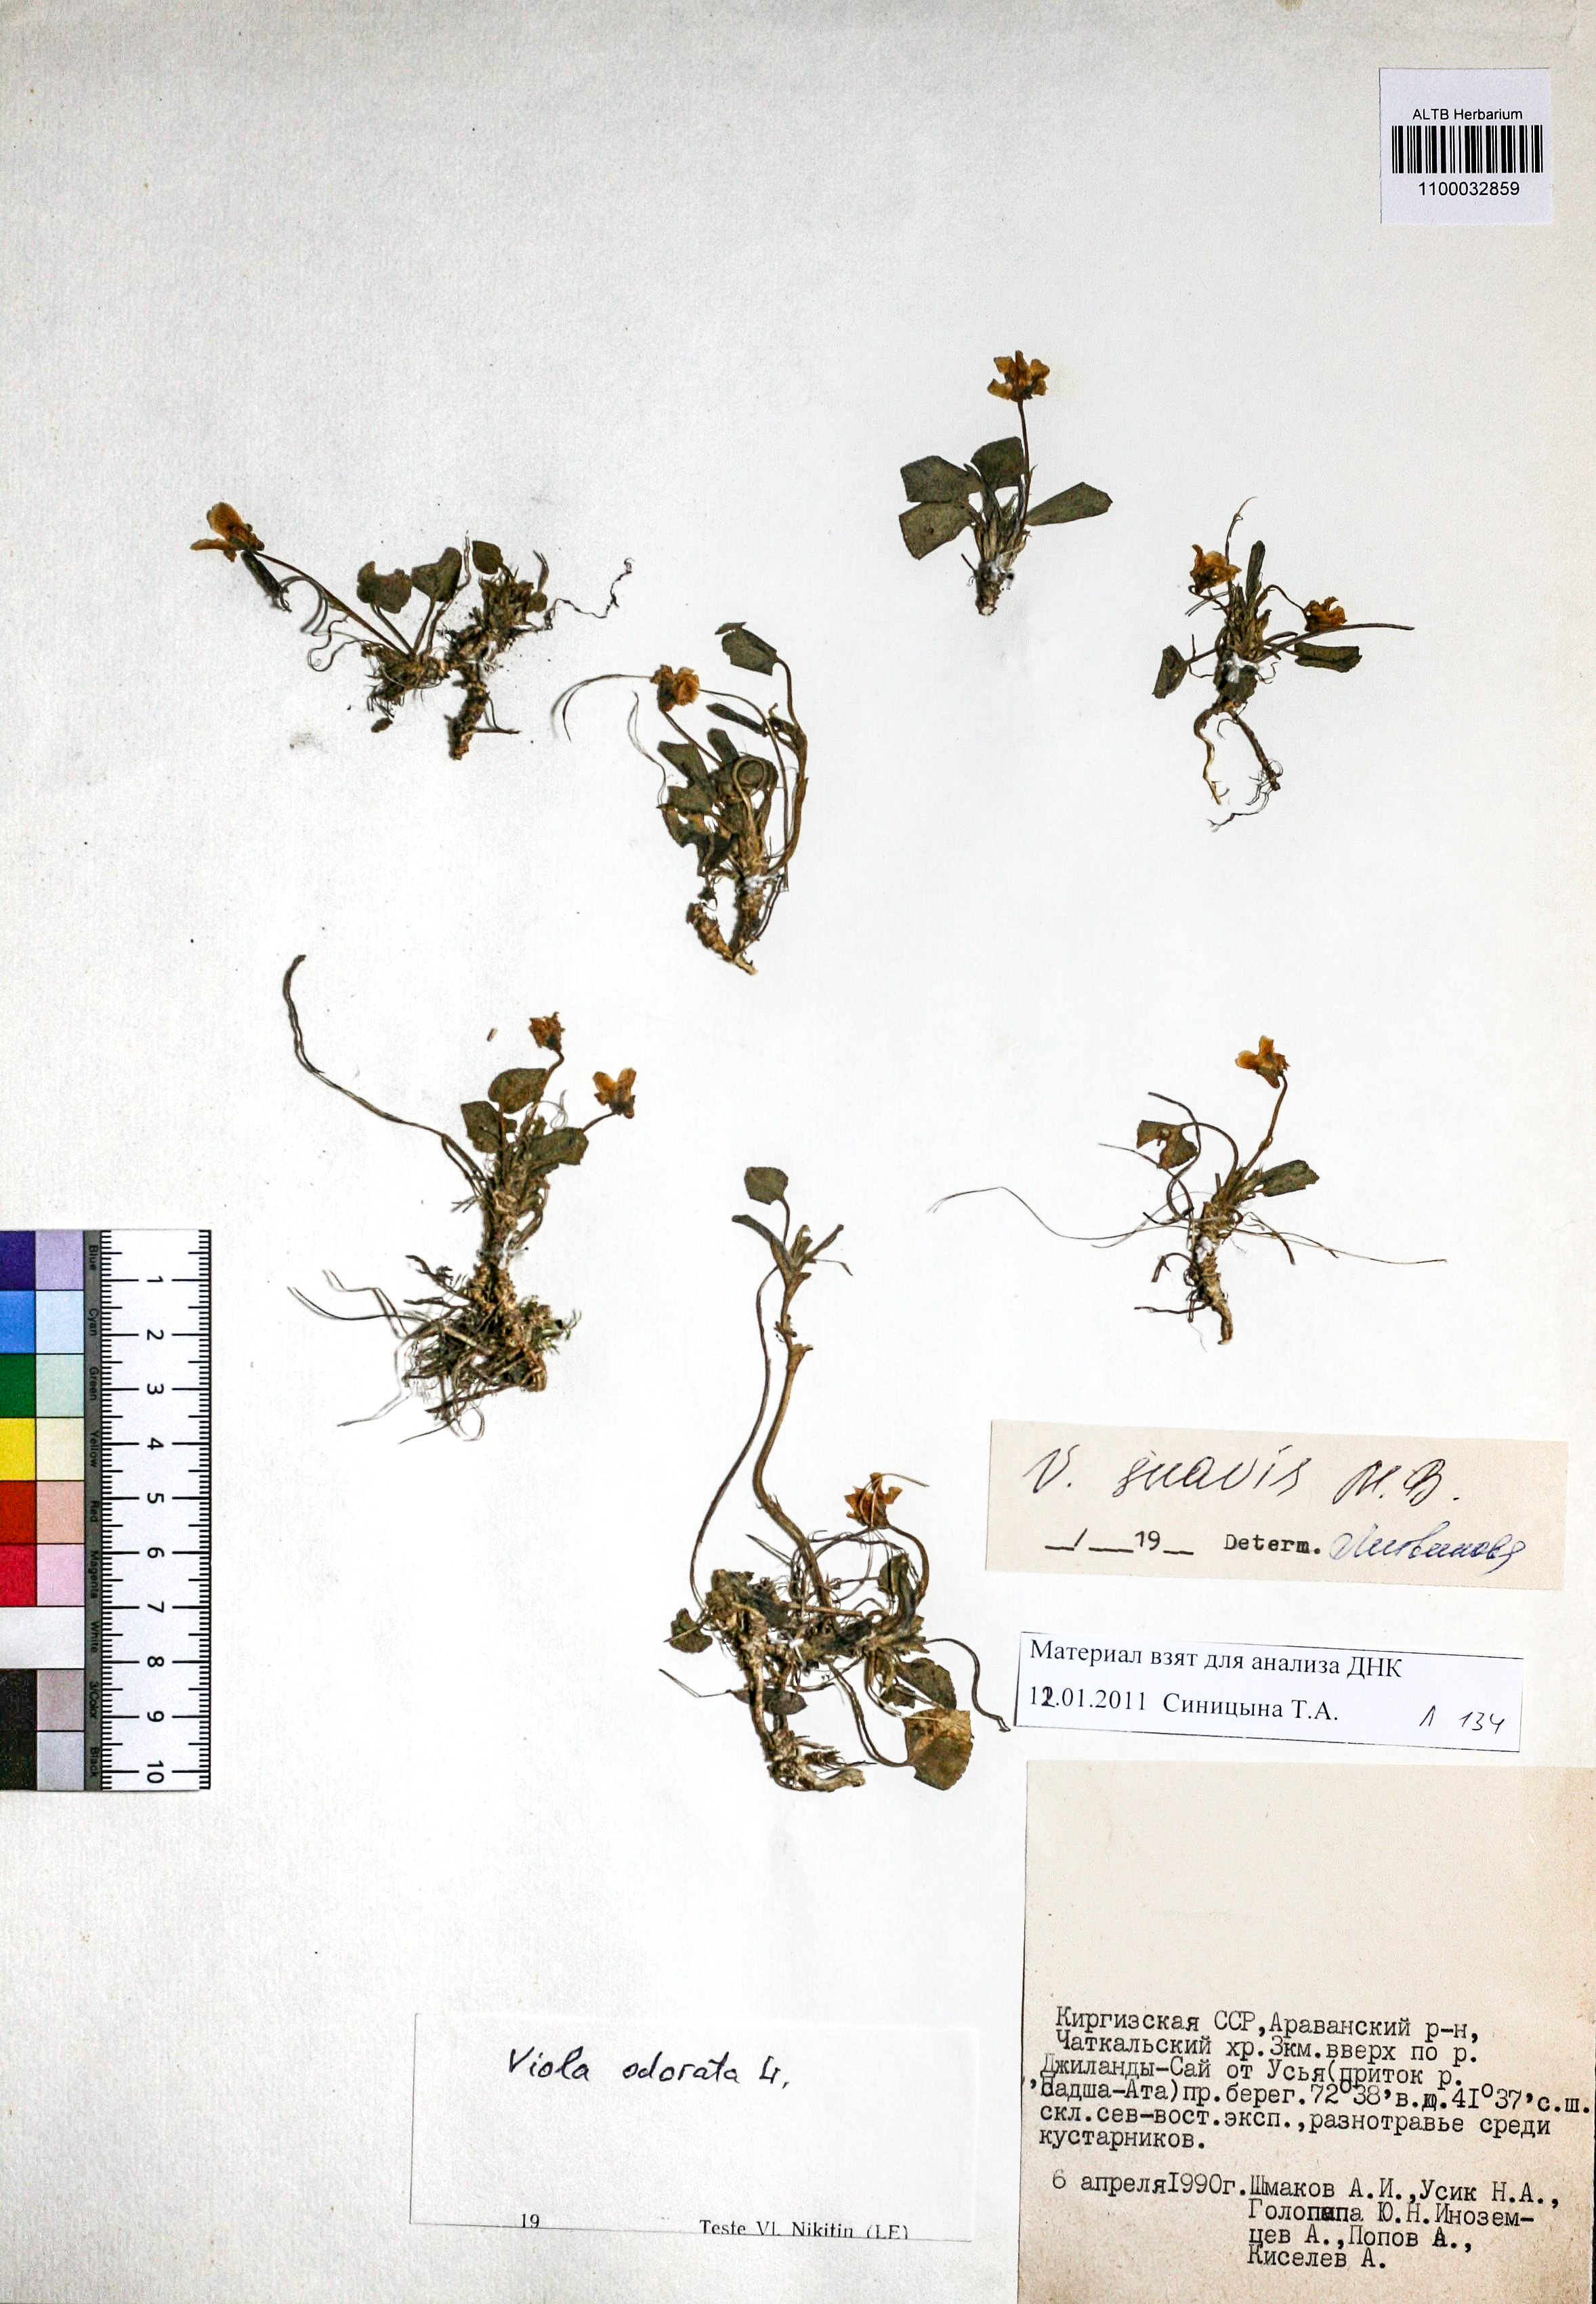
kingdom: Plantae
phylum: Tracheophyta
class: Magnoliopsida
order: Malpighiales
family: Violaceae
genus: Viola
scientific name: Viola odorata
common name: Sweet violet
